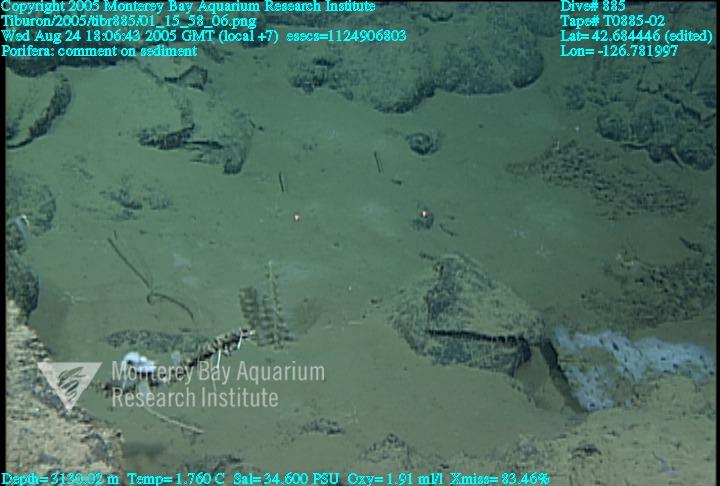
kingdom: Animalia
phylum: Porifera
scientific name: Porifera
